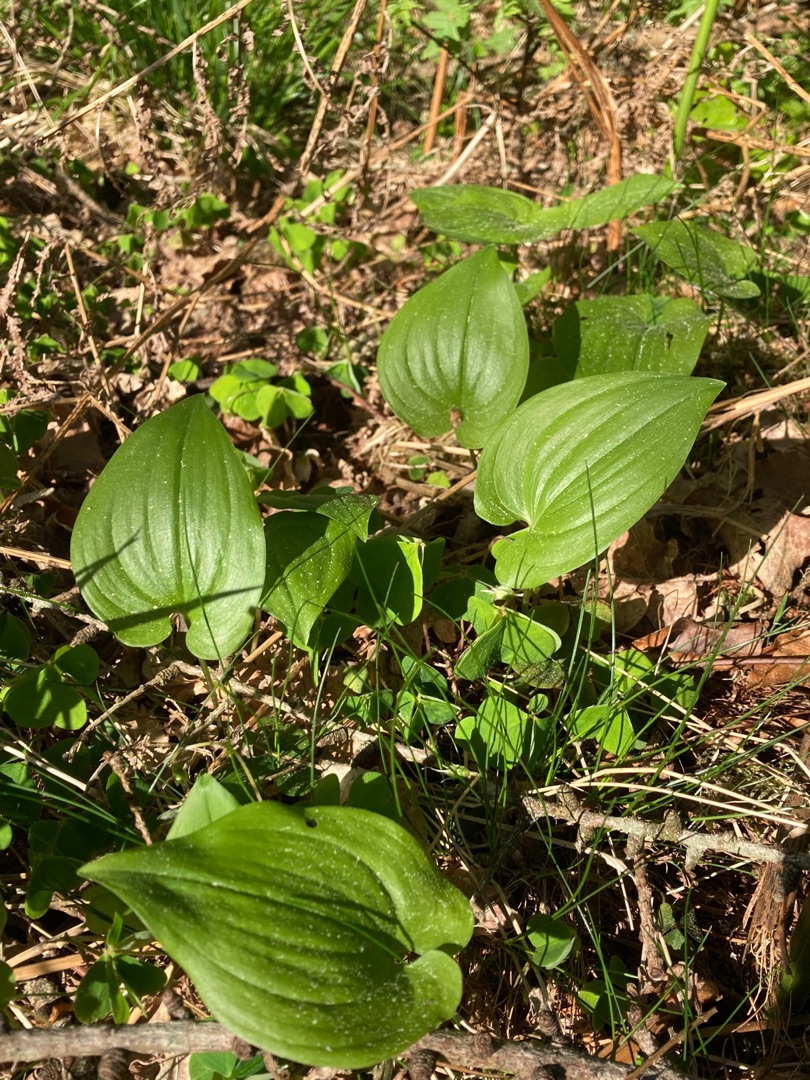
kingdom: Plantae
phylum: Tracheophyta
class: Liliopsida
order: Asparagales
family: Asparagaceae
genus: Maianthemum
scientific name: Maianthemum bifolium
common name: Majblomst
